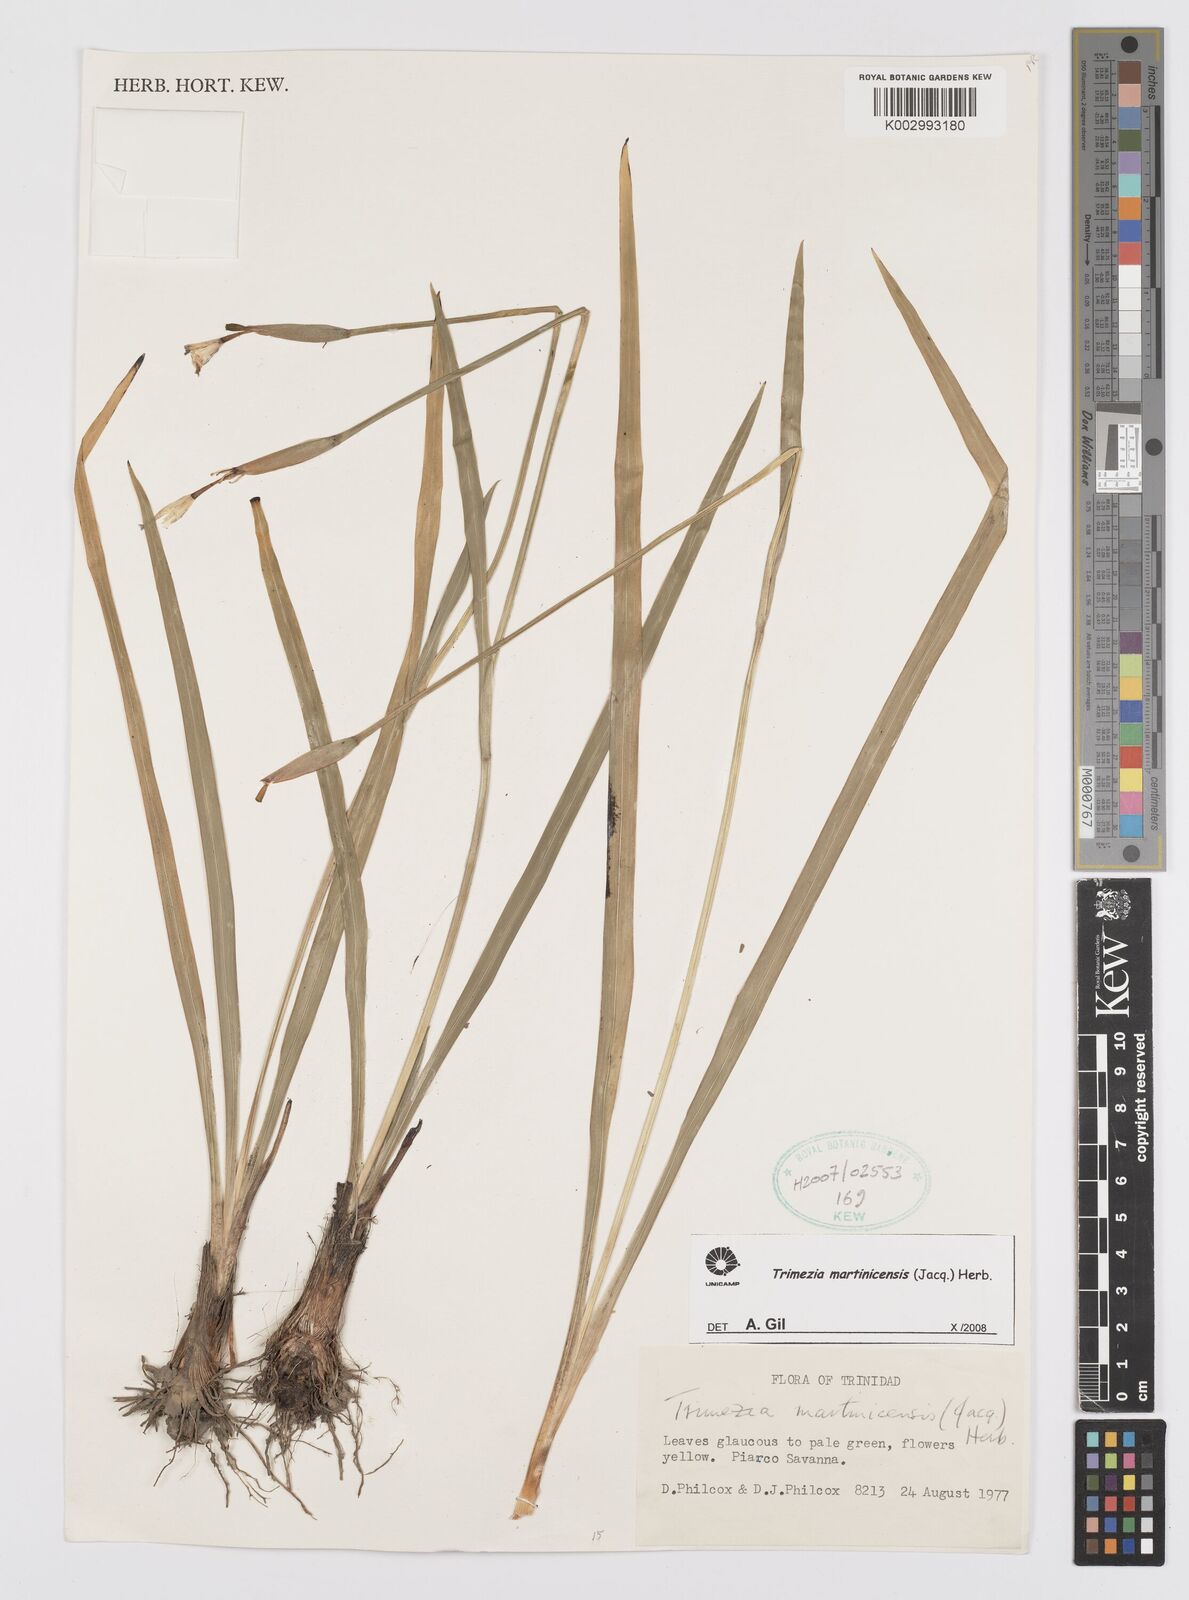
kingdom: Plantae
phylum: Tracheophyta
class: Liliopsida
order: Asparagales
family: Iridaceae
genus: Trimezia
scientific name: Trimezia martinicensis
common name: Martinique trimezia
